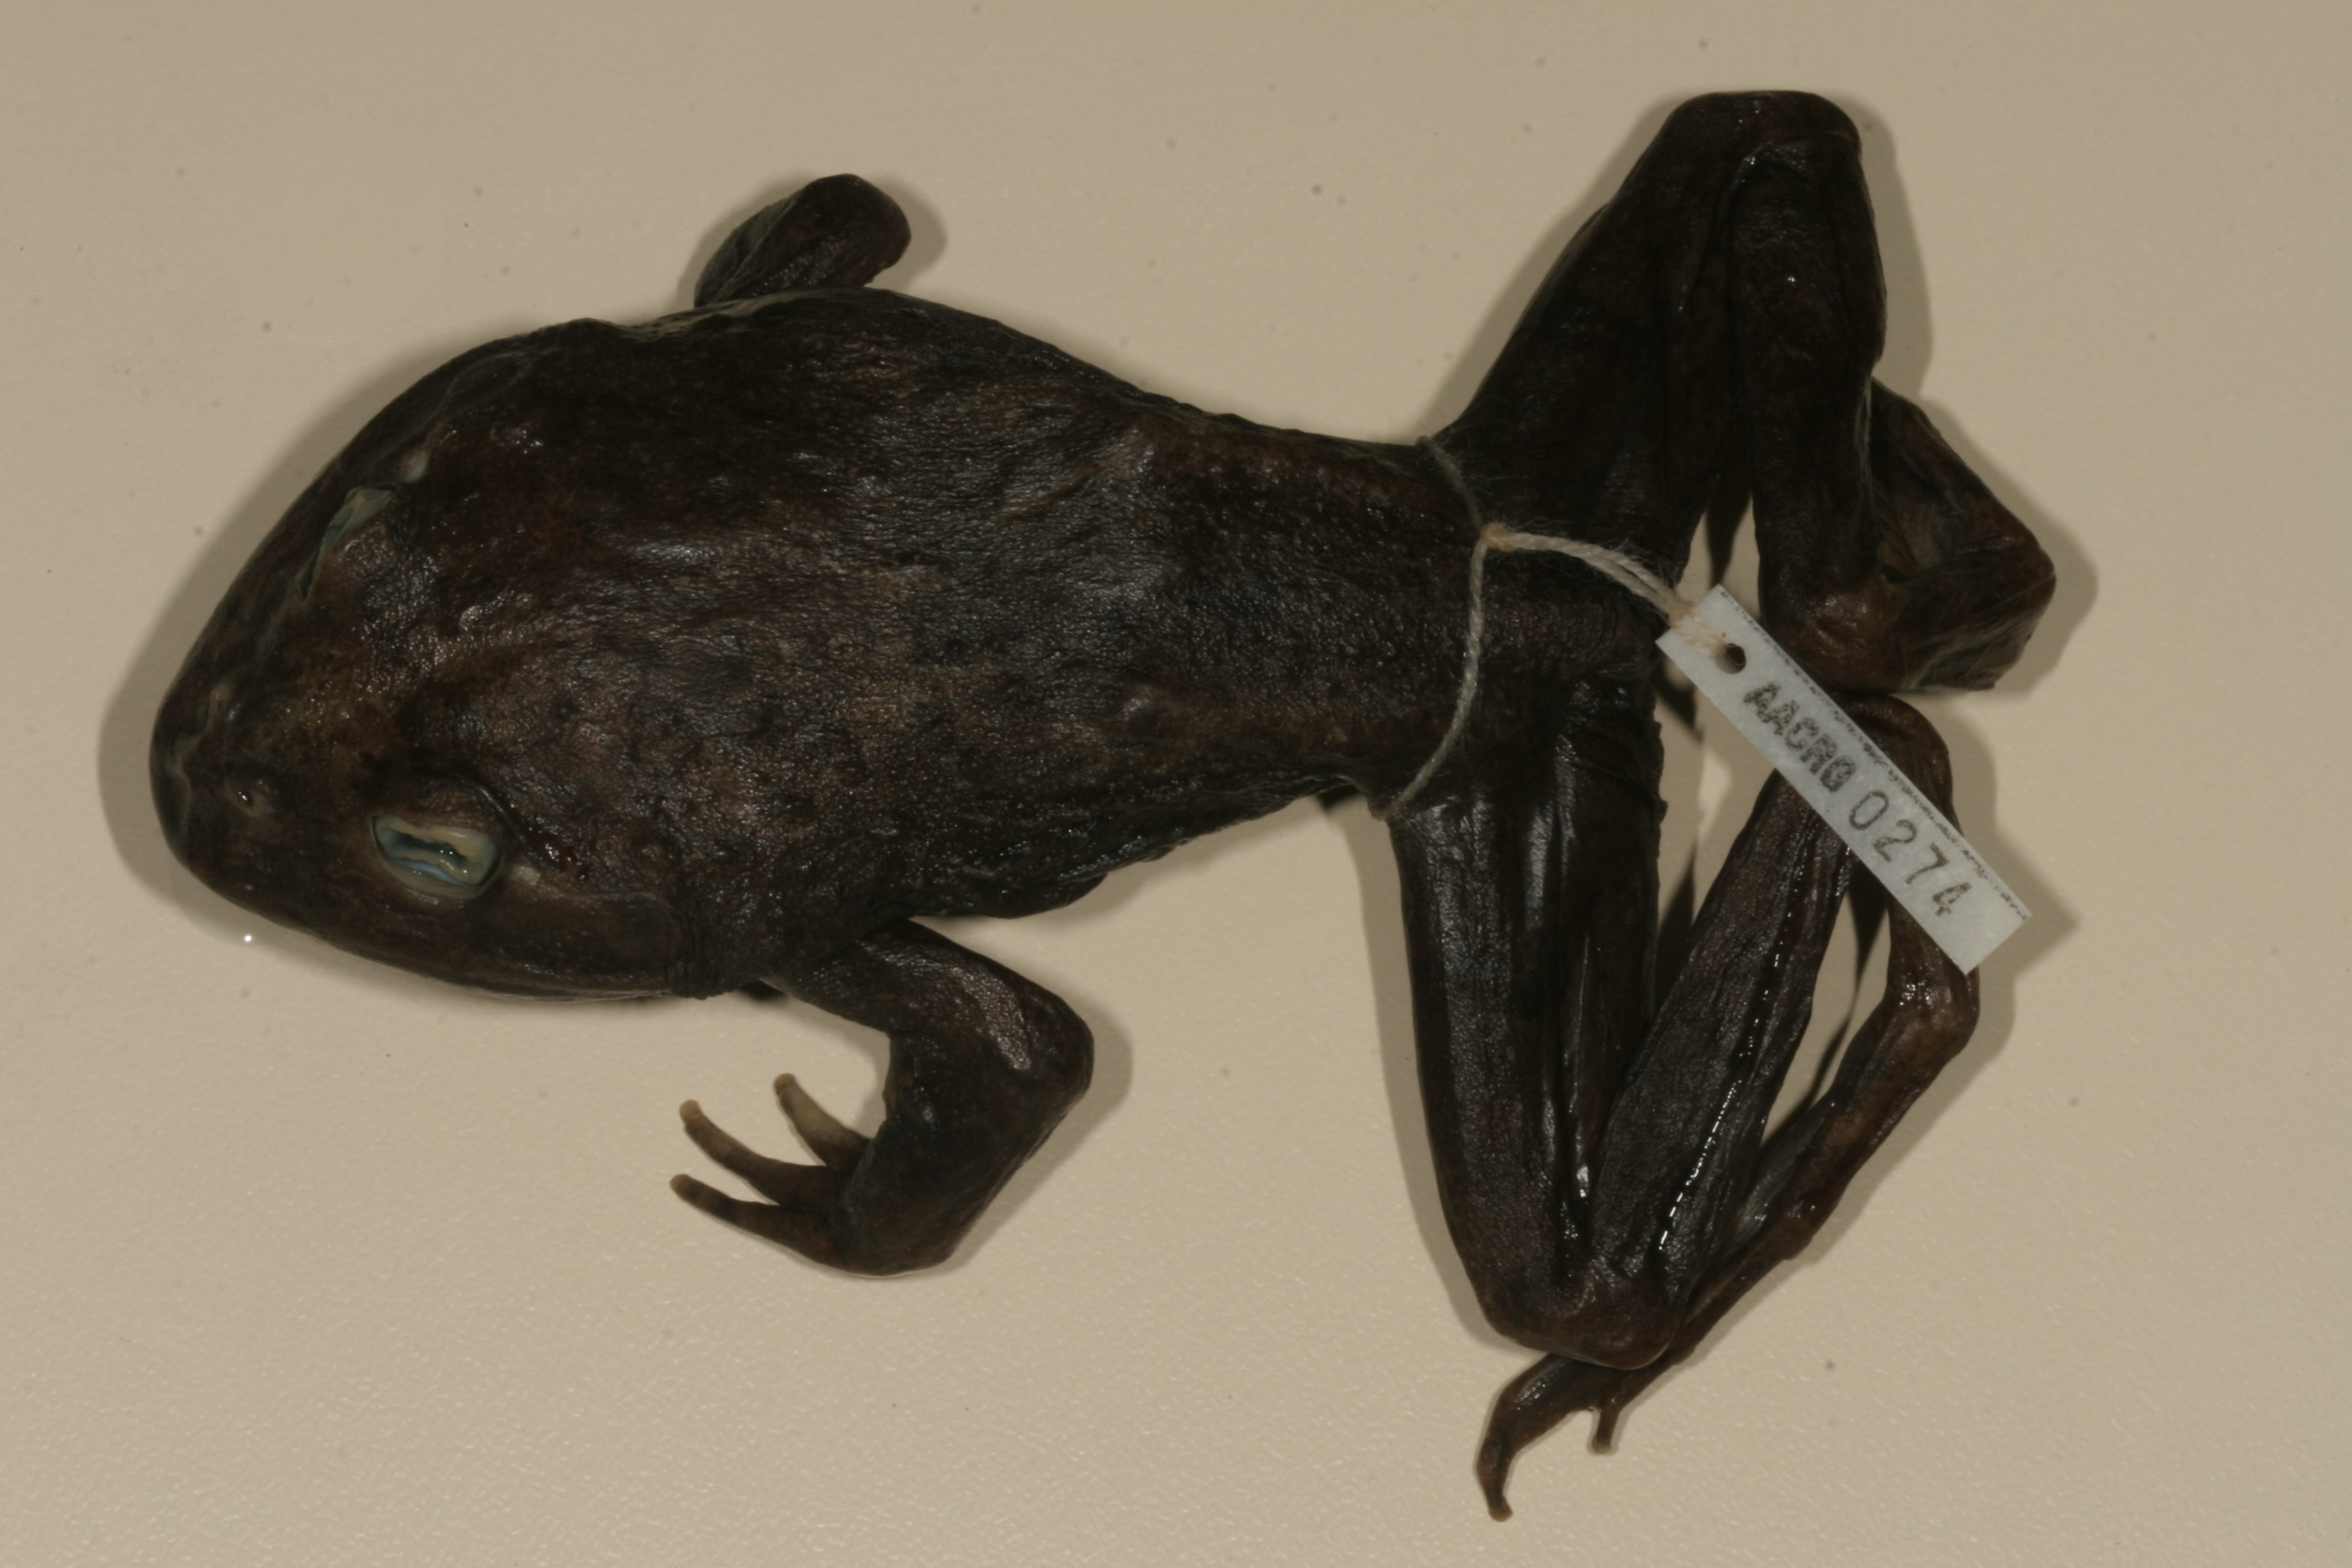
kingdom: Animalia
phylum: Chordata
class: Amphibia
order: Anura
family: Pyxicephalidae
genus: Amietia
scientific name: Amietia vertebralis
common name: Drakensberg stream frog
